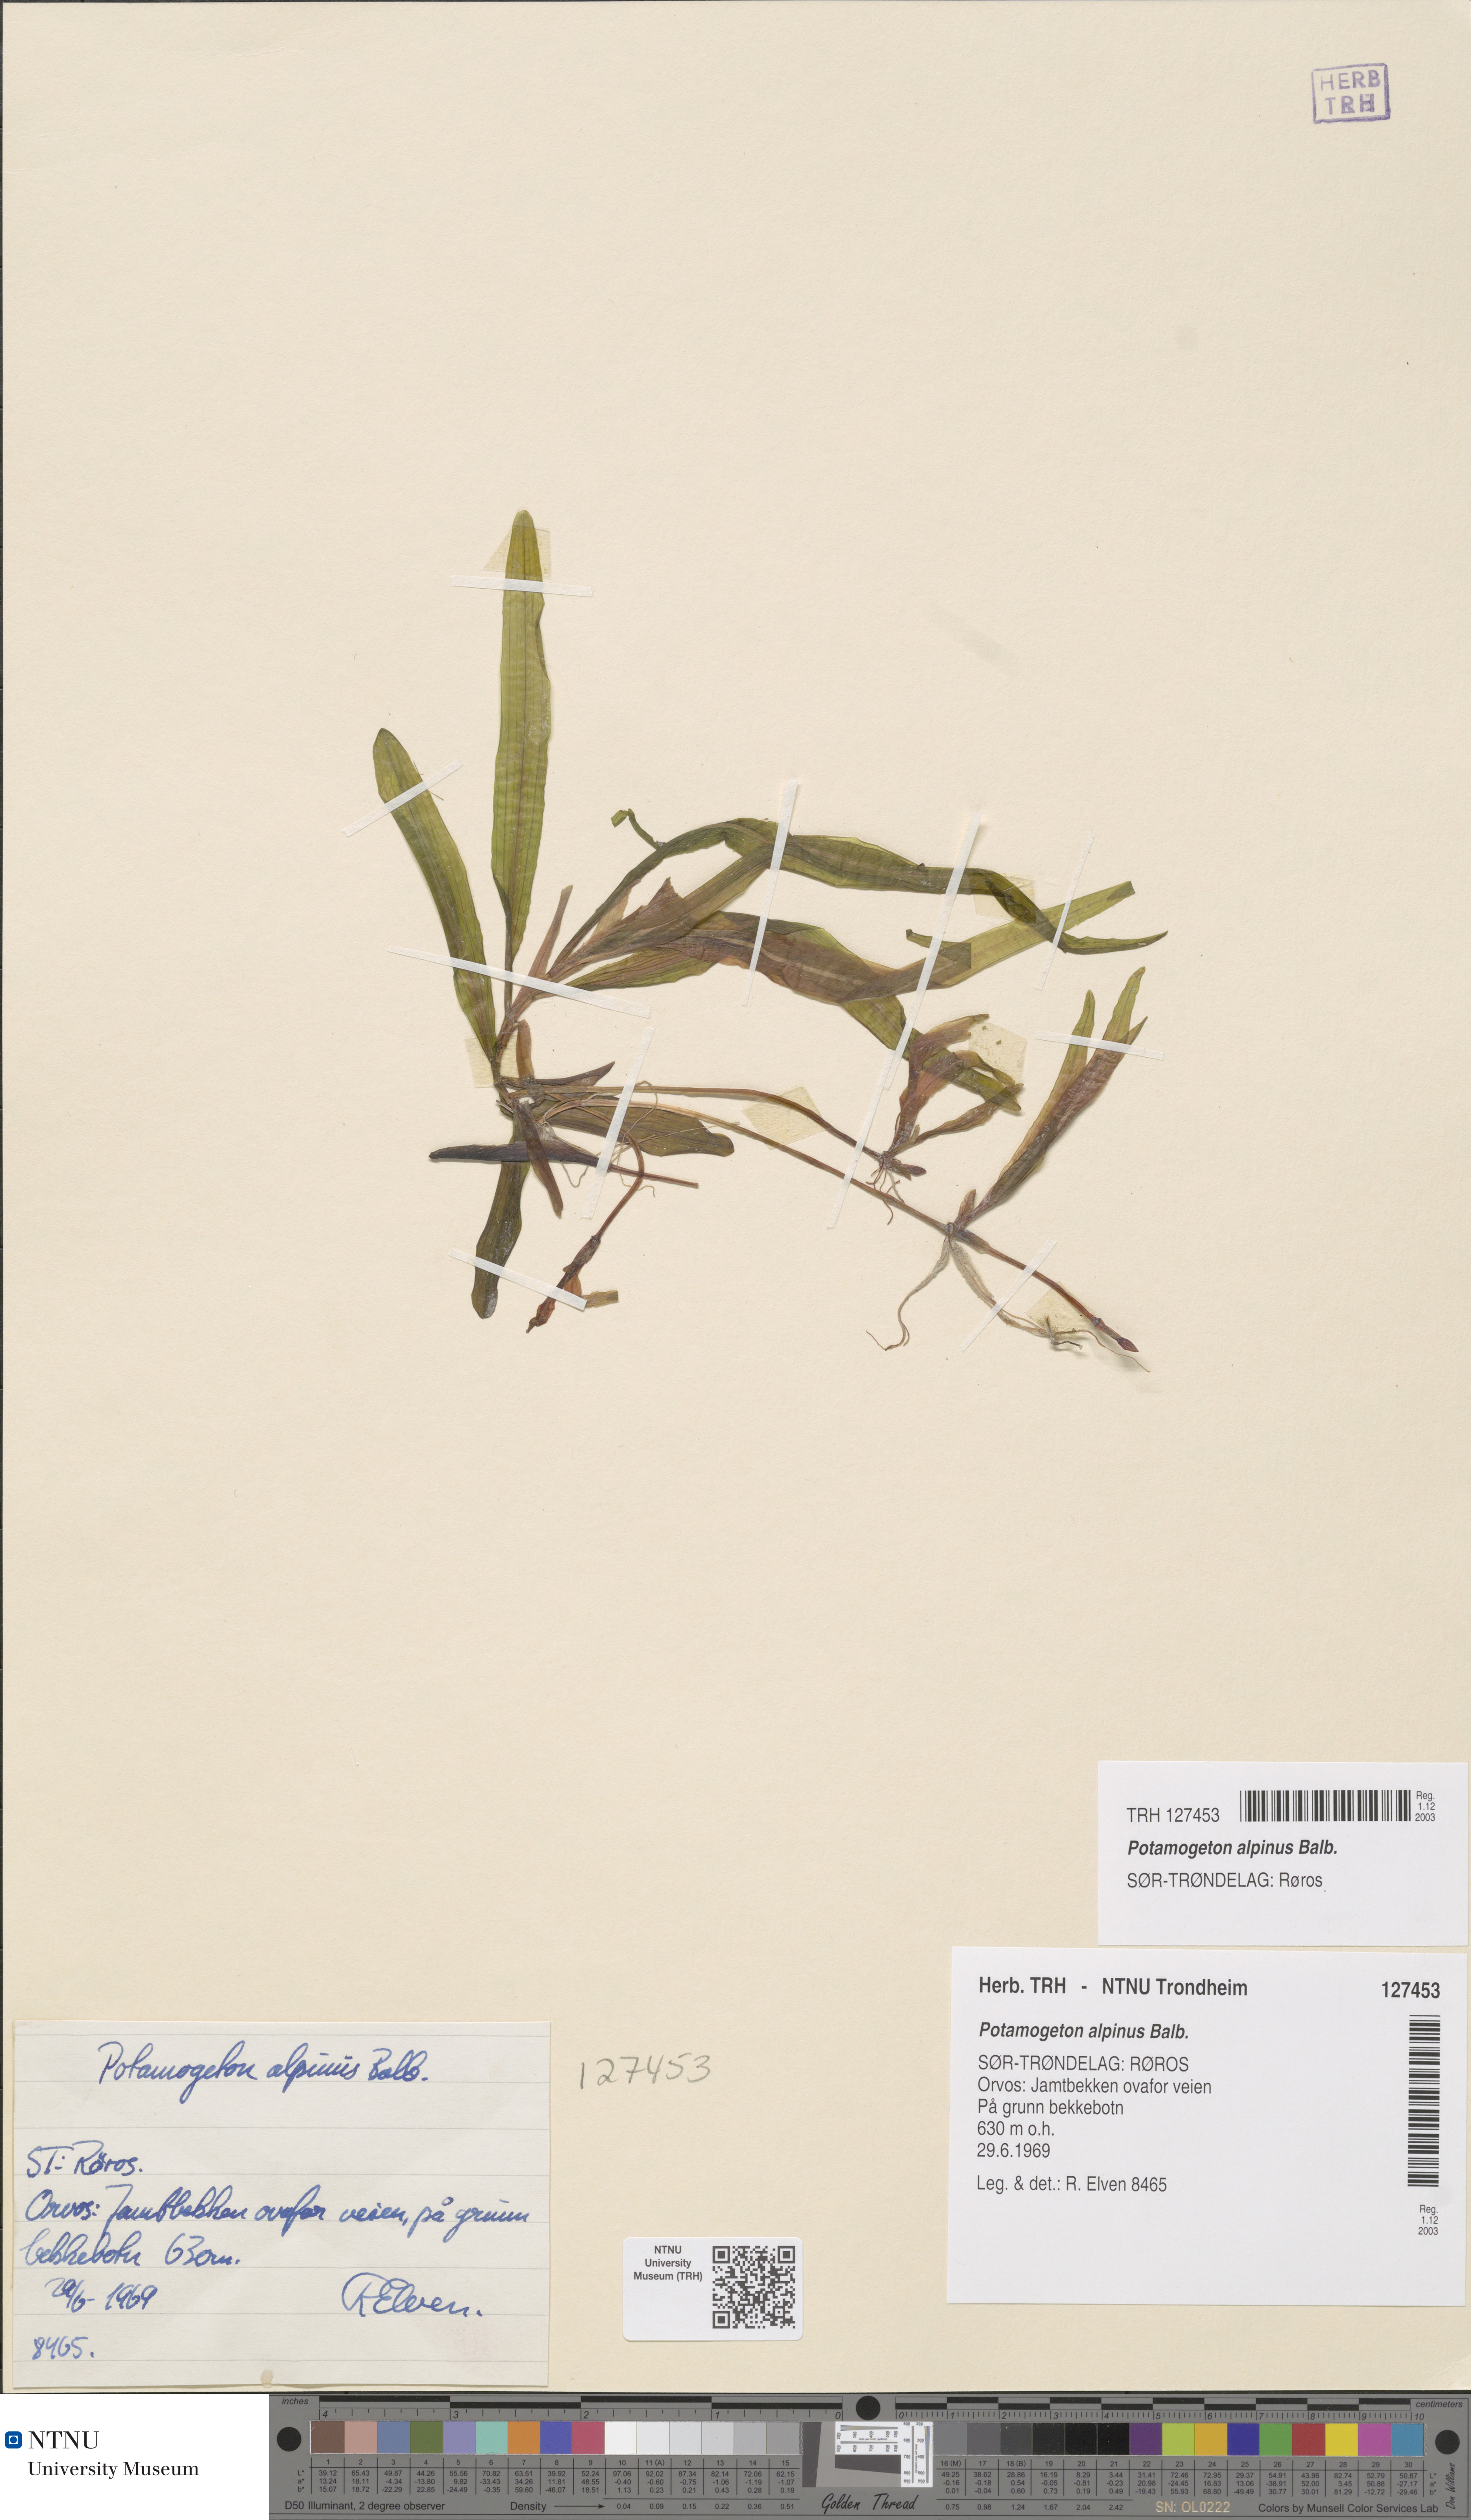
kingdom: Plantae
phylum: Tracheophyta
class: Liliopsida
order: Alismatales
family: Potamogetonaceae
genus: Potamogeton
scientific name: Potamogeton alpinus
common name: Red pondweed
